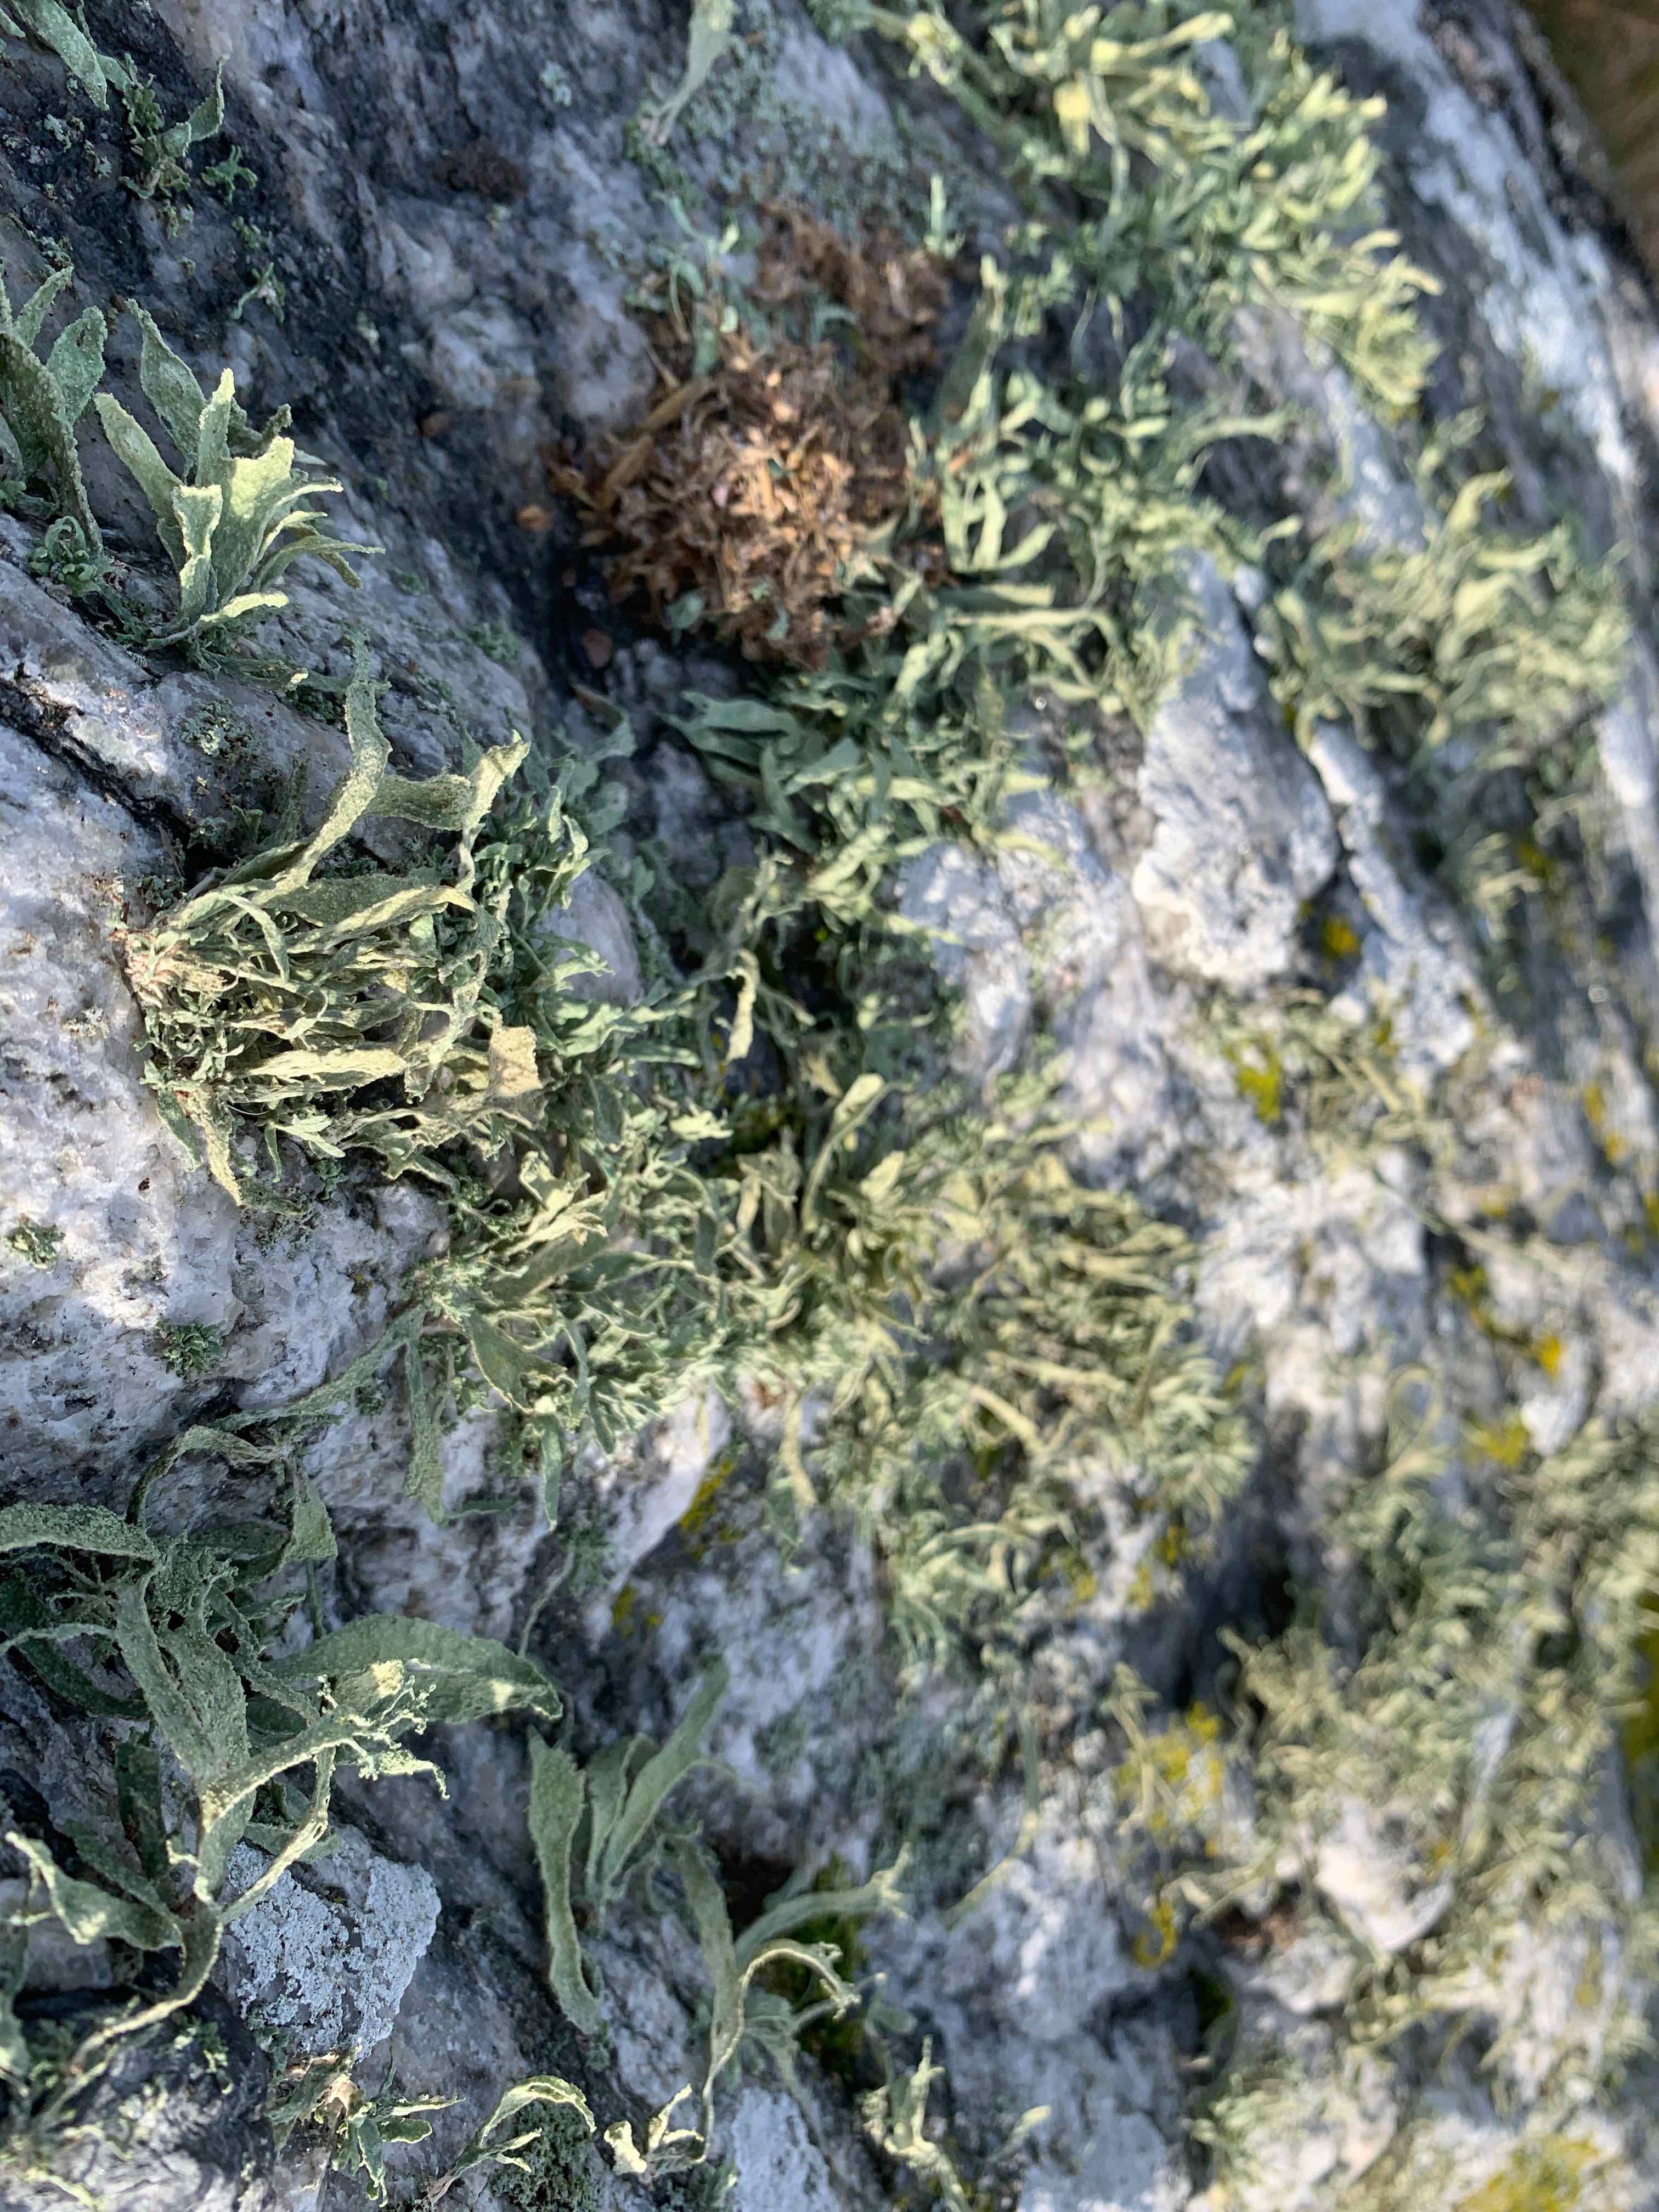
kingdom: Fungi
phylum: Ascomycota
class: Lecanoromycetes
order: Lecanorales
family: Ramalinaceae
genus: Ramalina
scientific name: Ramalina polymorpha
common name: kornet grenlav
